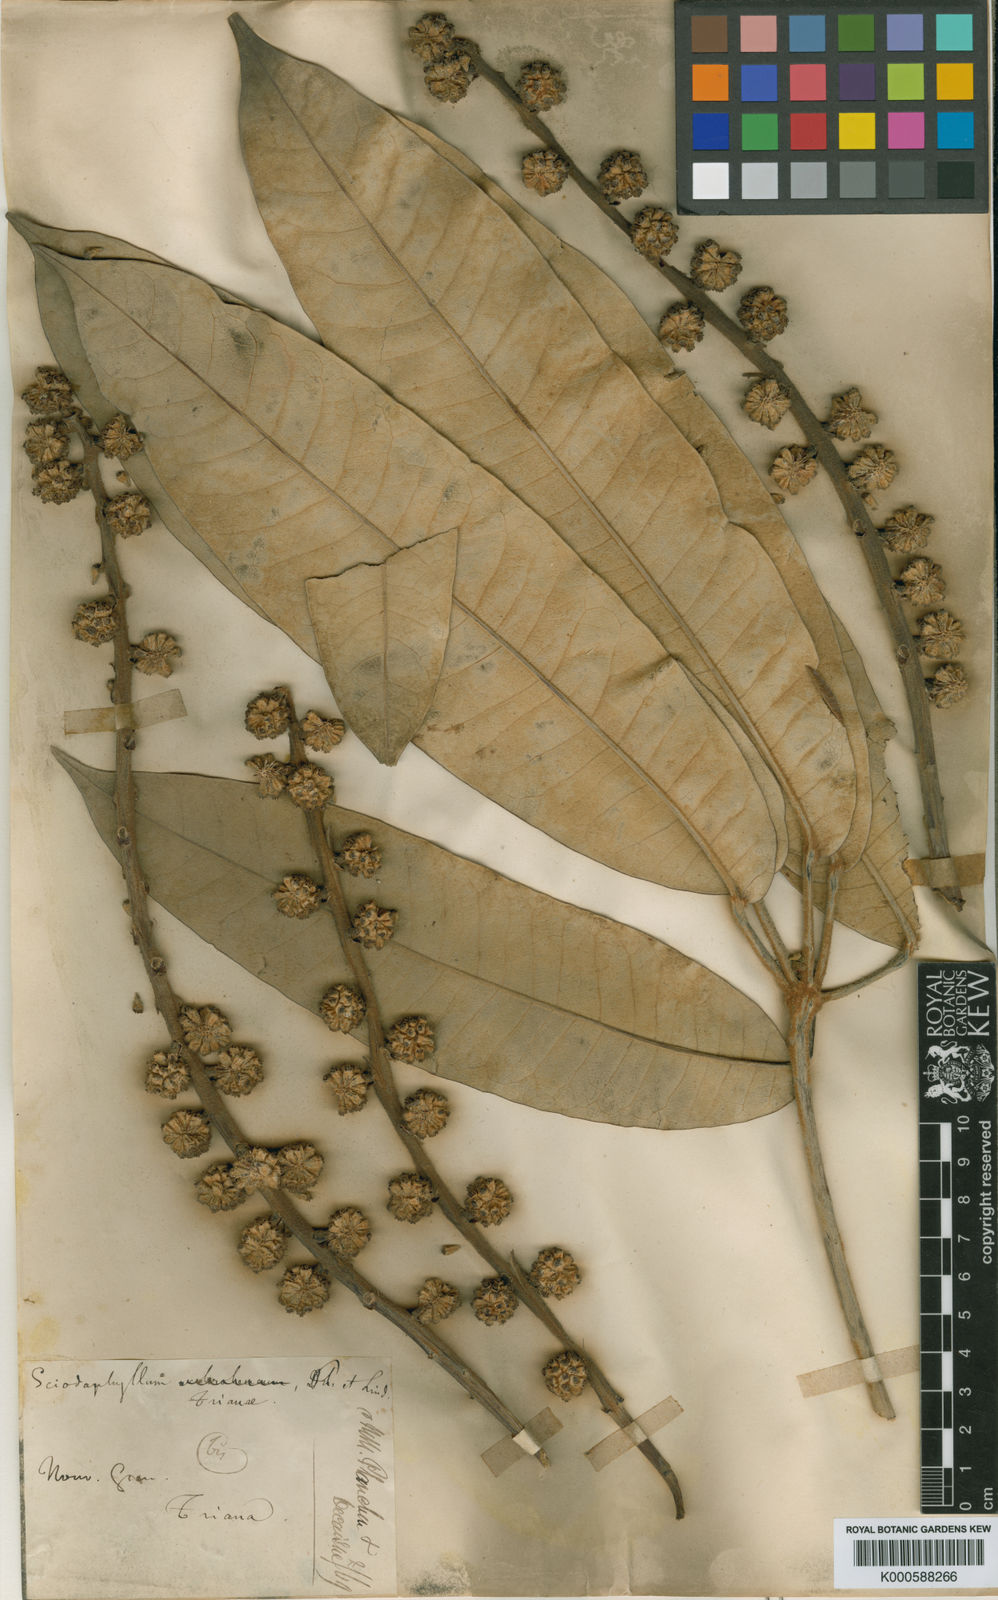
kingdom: Plantae
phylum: Tracheophyta
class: Magnoliopsida
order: Apiales
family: Araliaceae
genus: Sciodaphyllum
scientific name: Sciodaphyllum trianae
